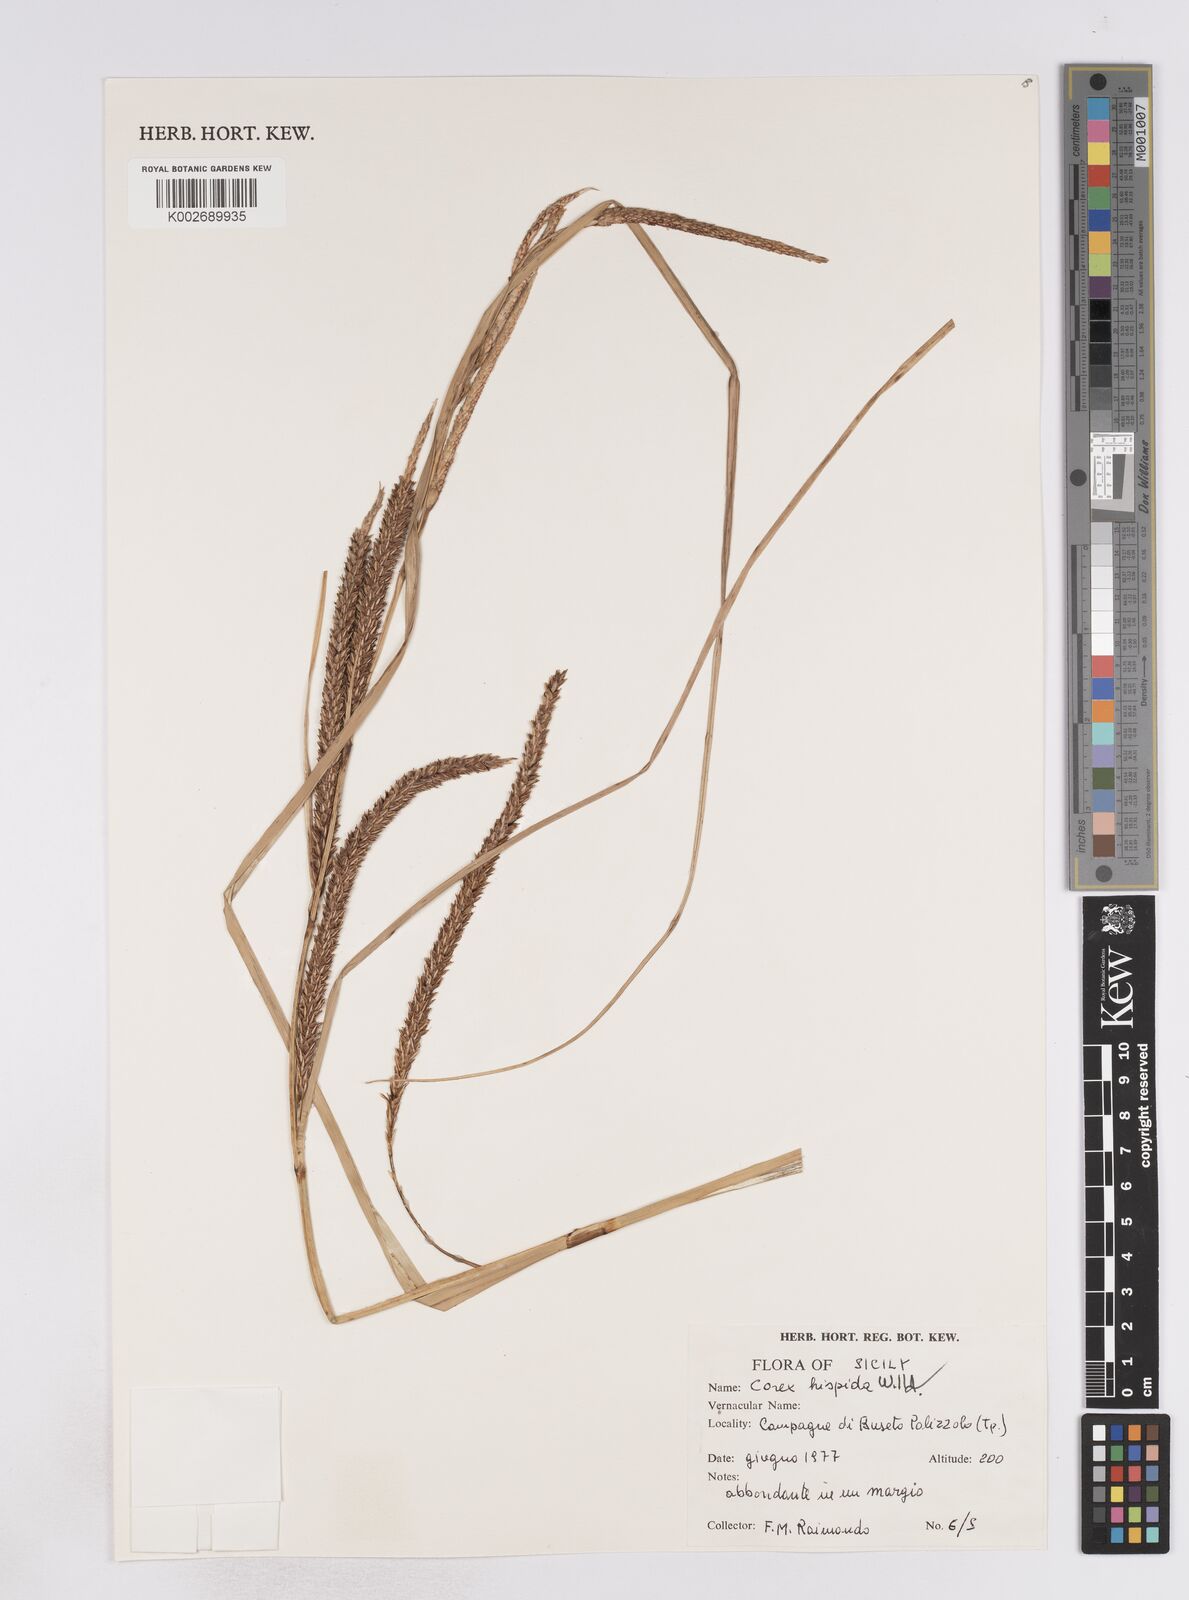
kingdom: Plantae
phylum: Tracheophyta
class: Liliopsida
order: Poales
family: Cyperaceae
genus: Carex
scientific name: Carex hispida
